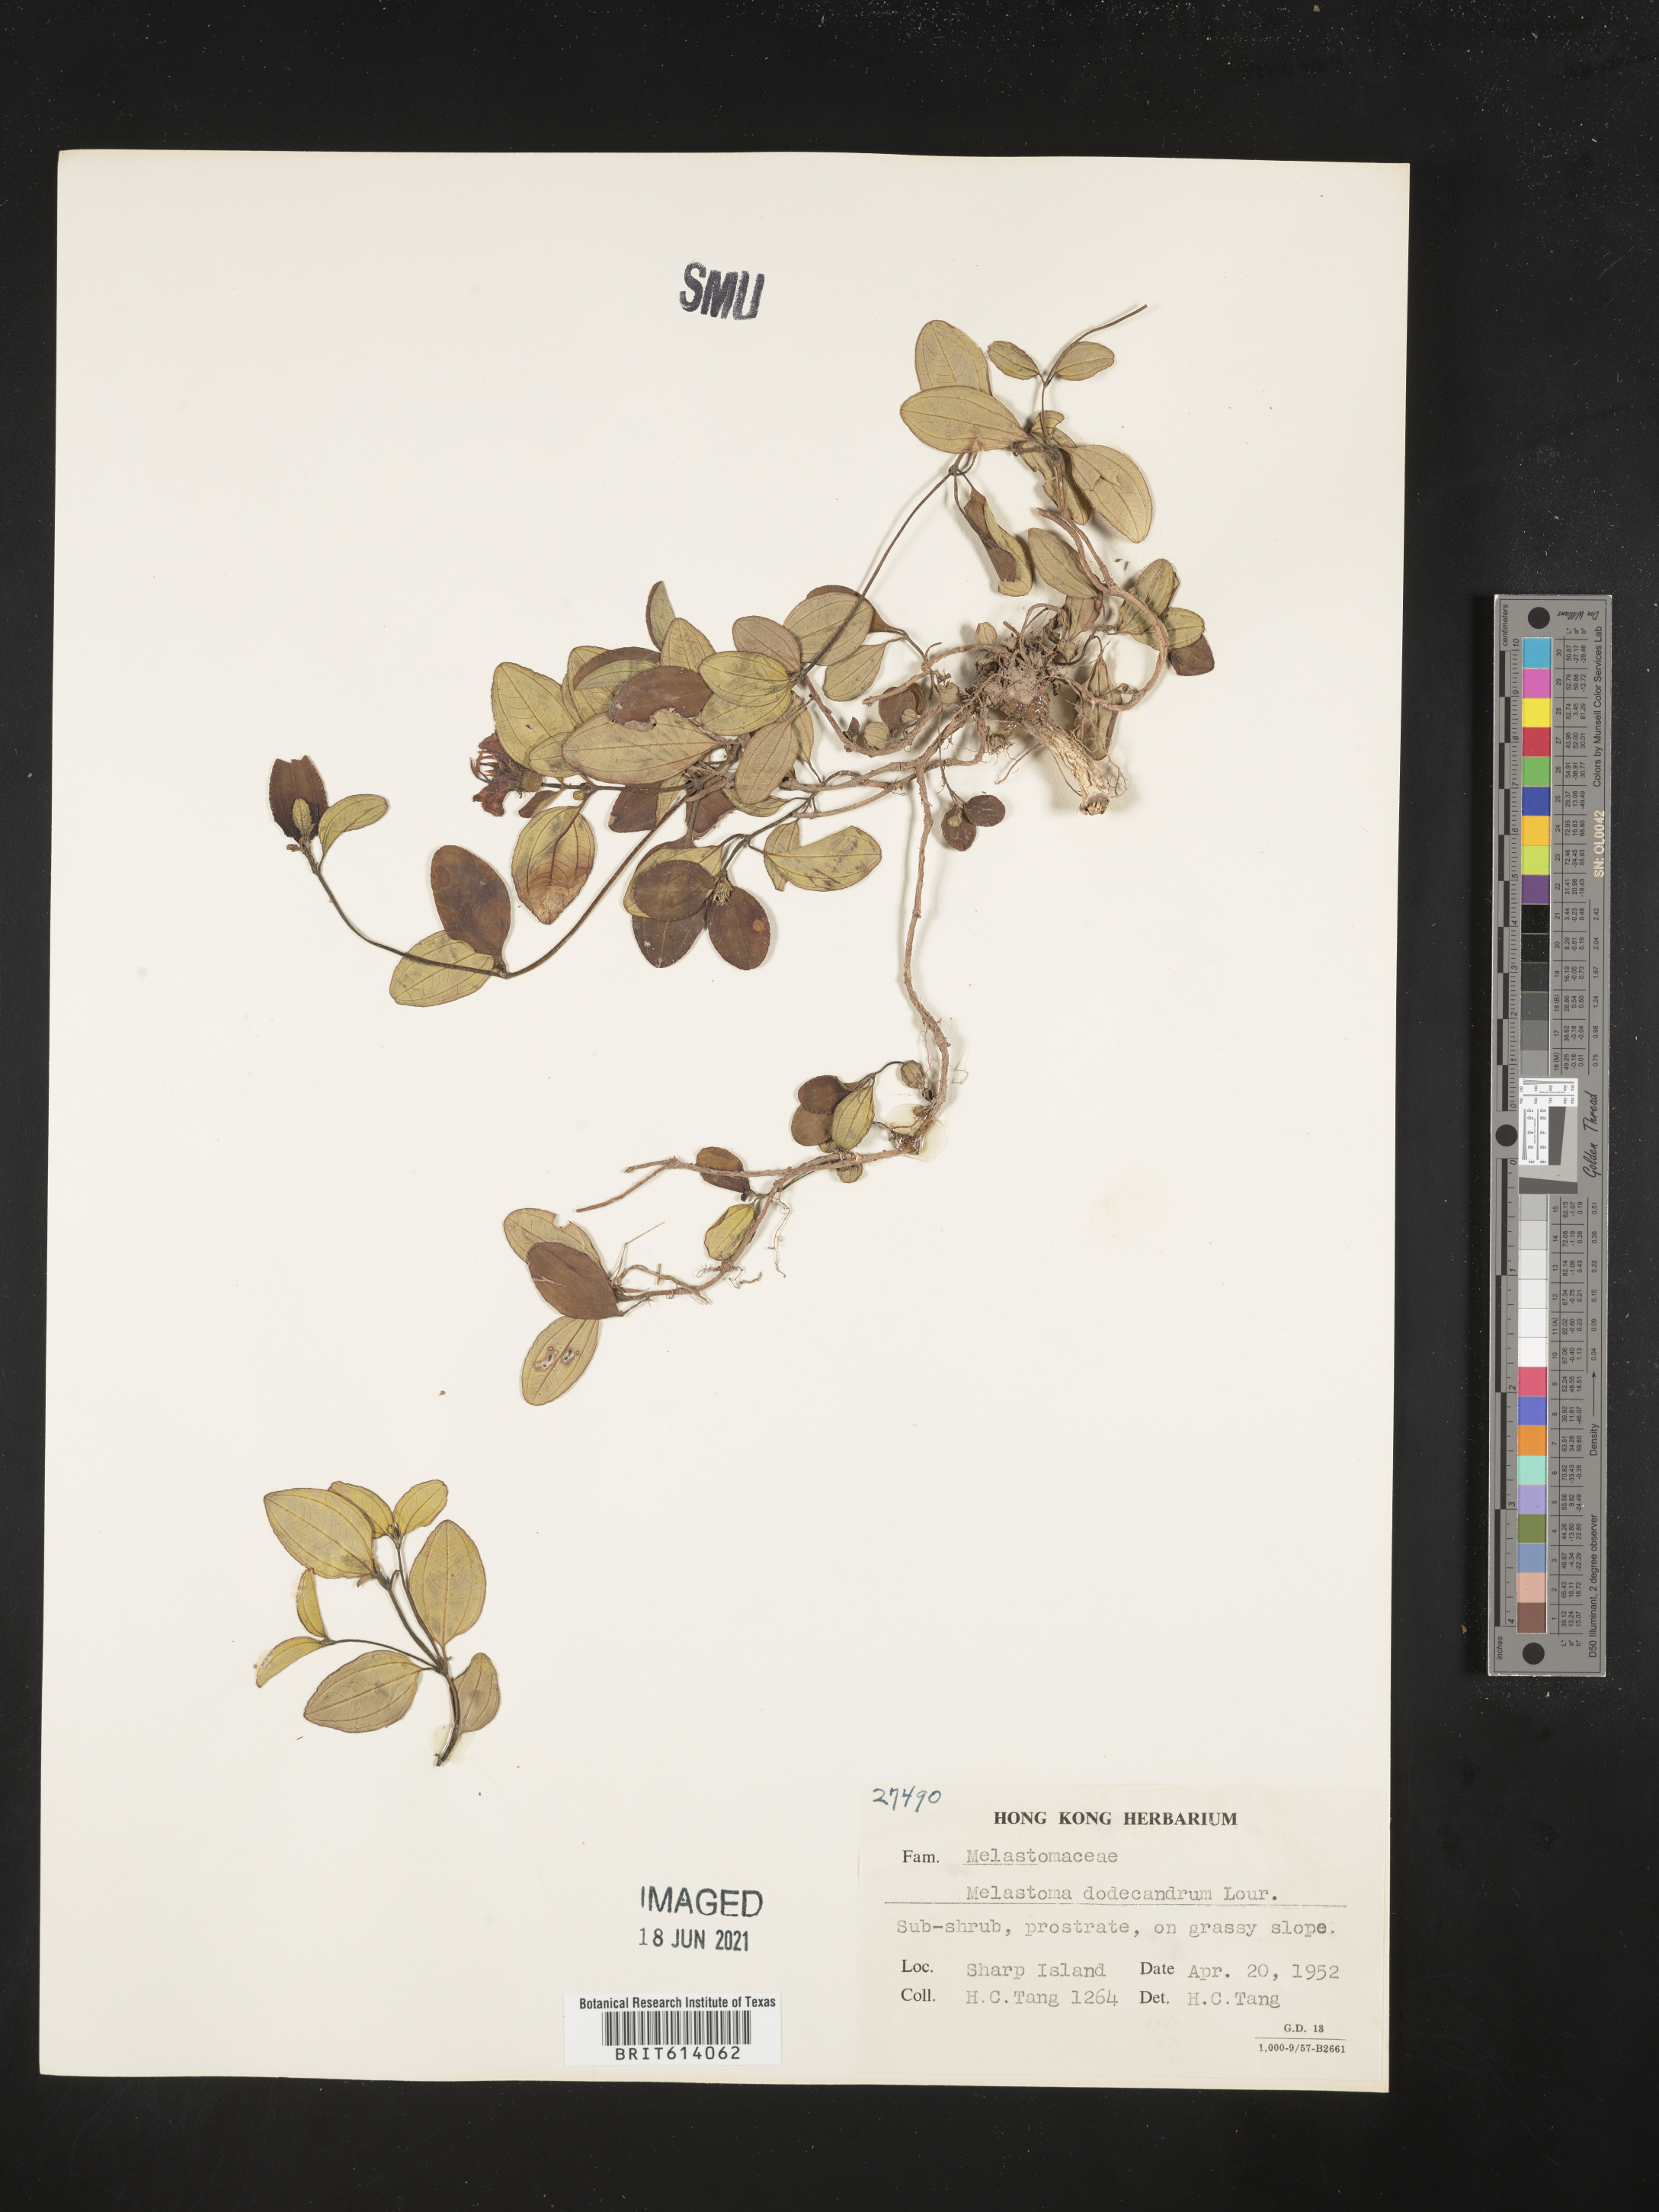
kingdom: Plantae
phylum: Tracheophyta
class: Magnoliopsida
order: Myrtales
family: Melastomataceae
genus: Melastoma
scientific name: Melastoma dodecandrum
